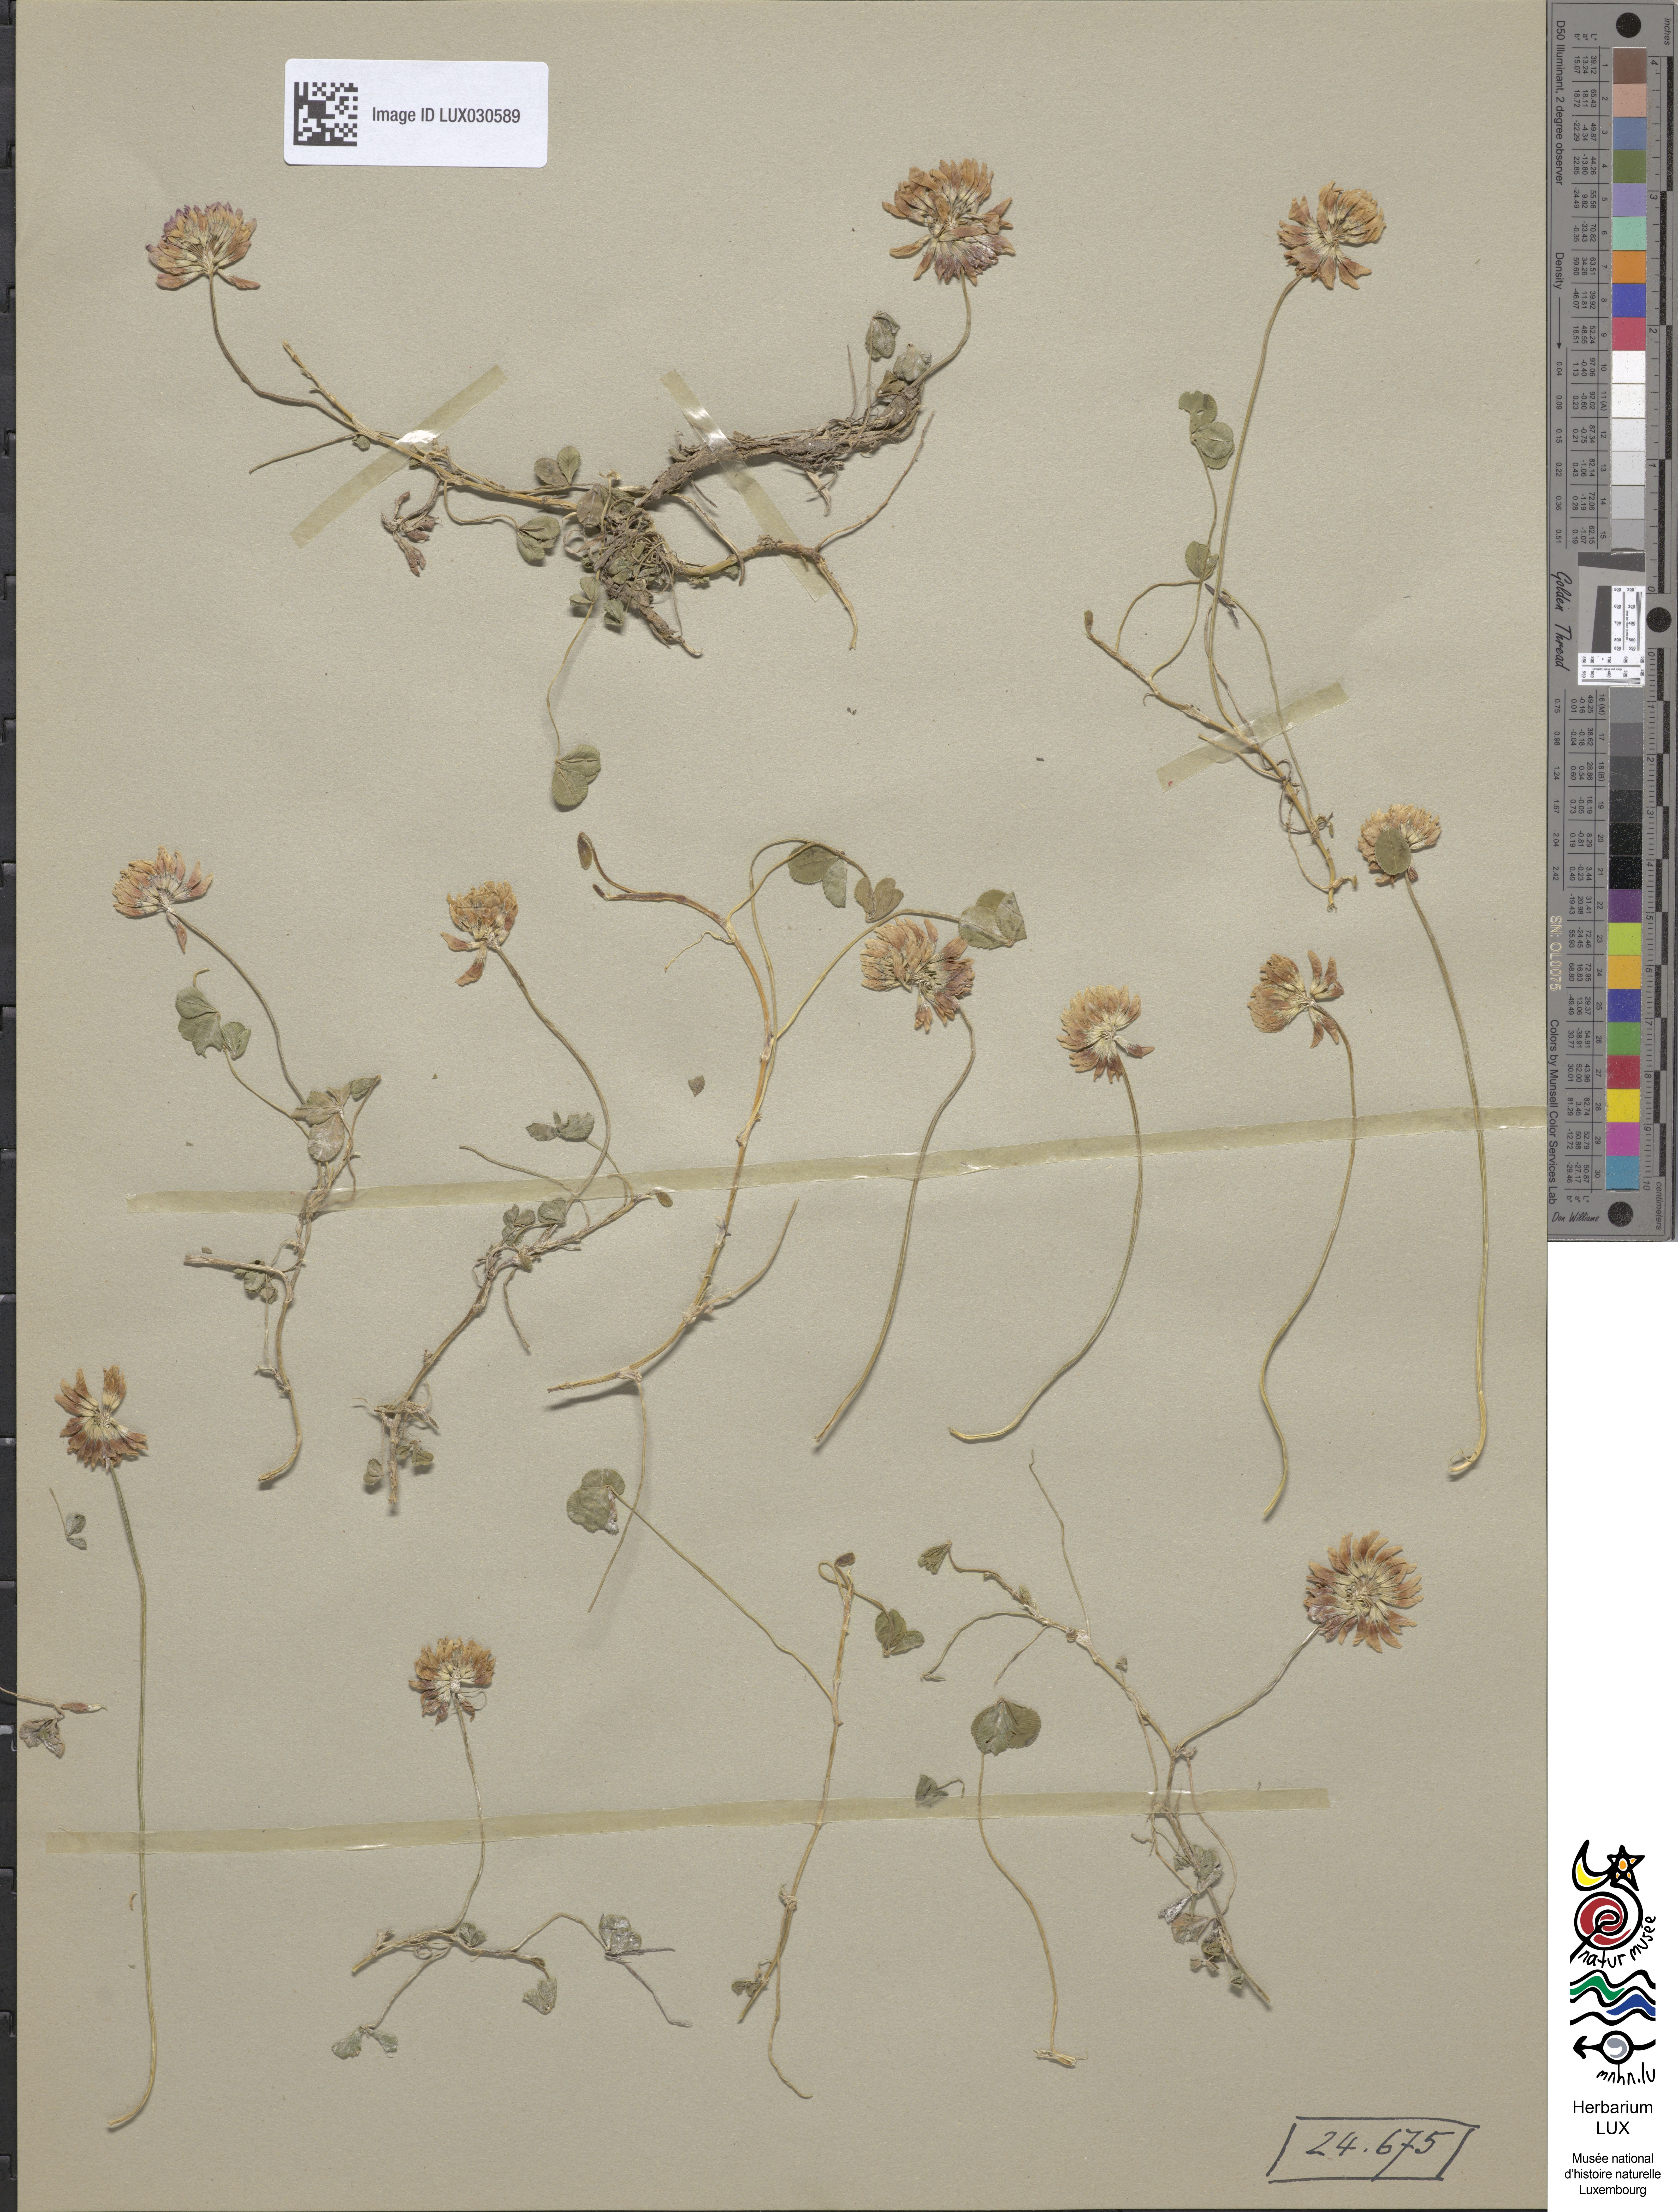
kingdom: Plantae
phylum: Tracheophyta
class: Magnoliopsida
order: Fabales
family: Fabaceae
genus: Trifolium
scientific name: Trifolium repens
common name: White clover
